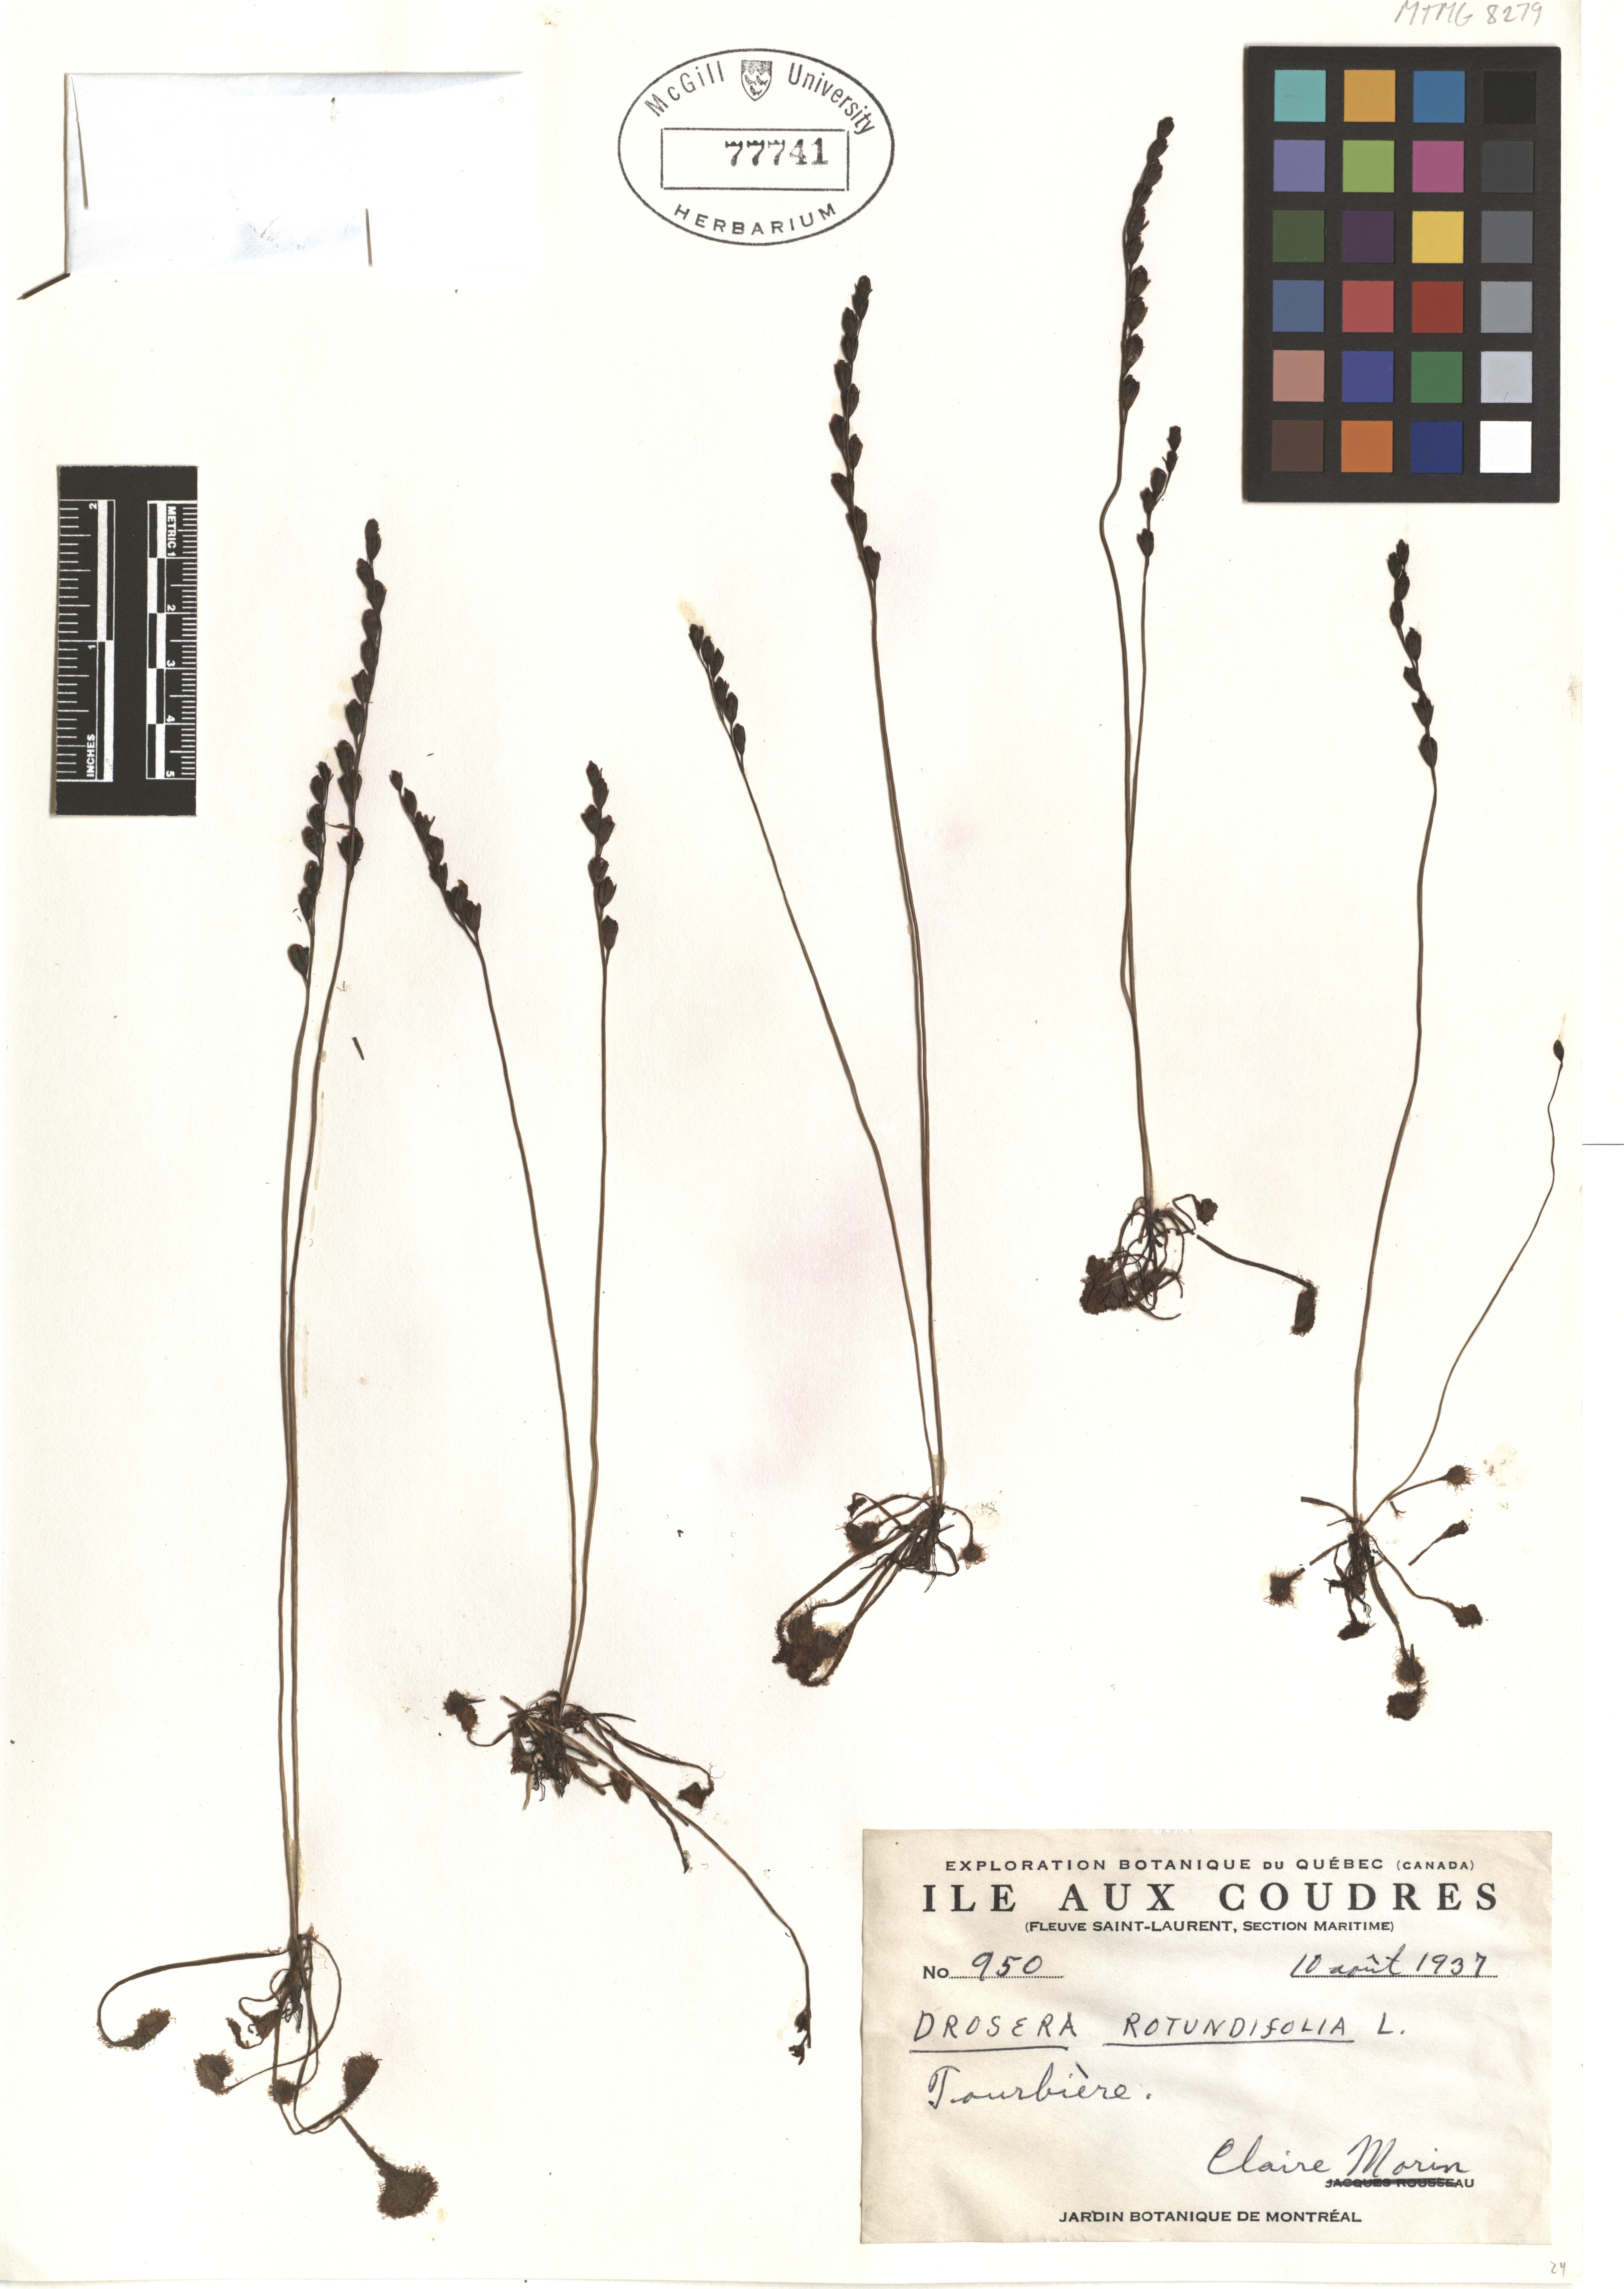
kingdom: Plantae
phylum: Tracheophyta
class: Magnoliopsida
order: Caryophyllales
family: Droseraceae
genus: Drosera
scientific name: Drosera rotundifolia
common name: Round-leaved sundew
